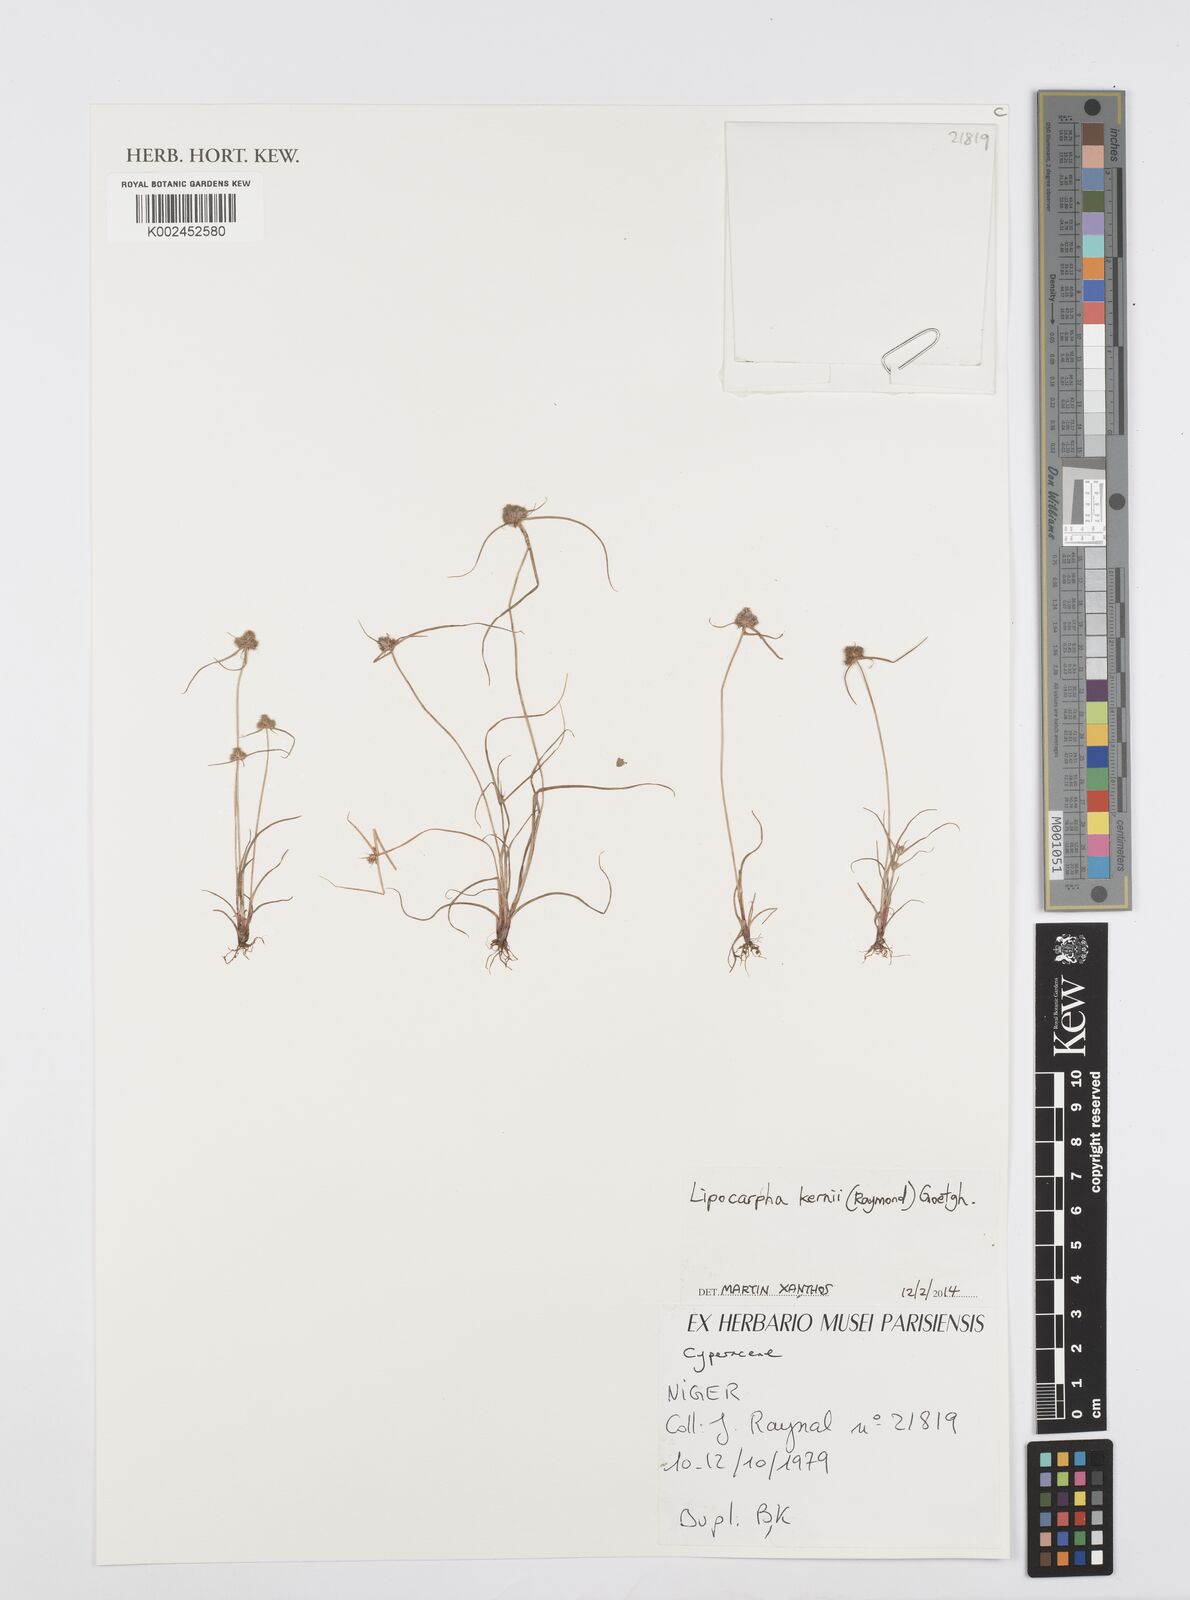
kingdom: Plantae
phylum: Tracheophyta
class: Liliopsida
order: Poales
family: Cyperaceae
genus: Cyperus
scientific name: Cyperus kernii
